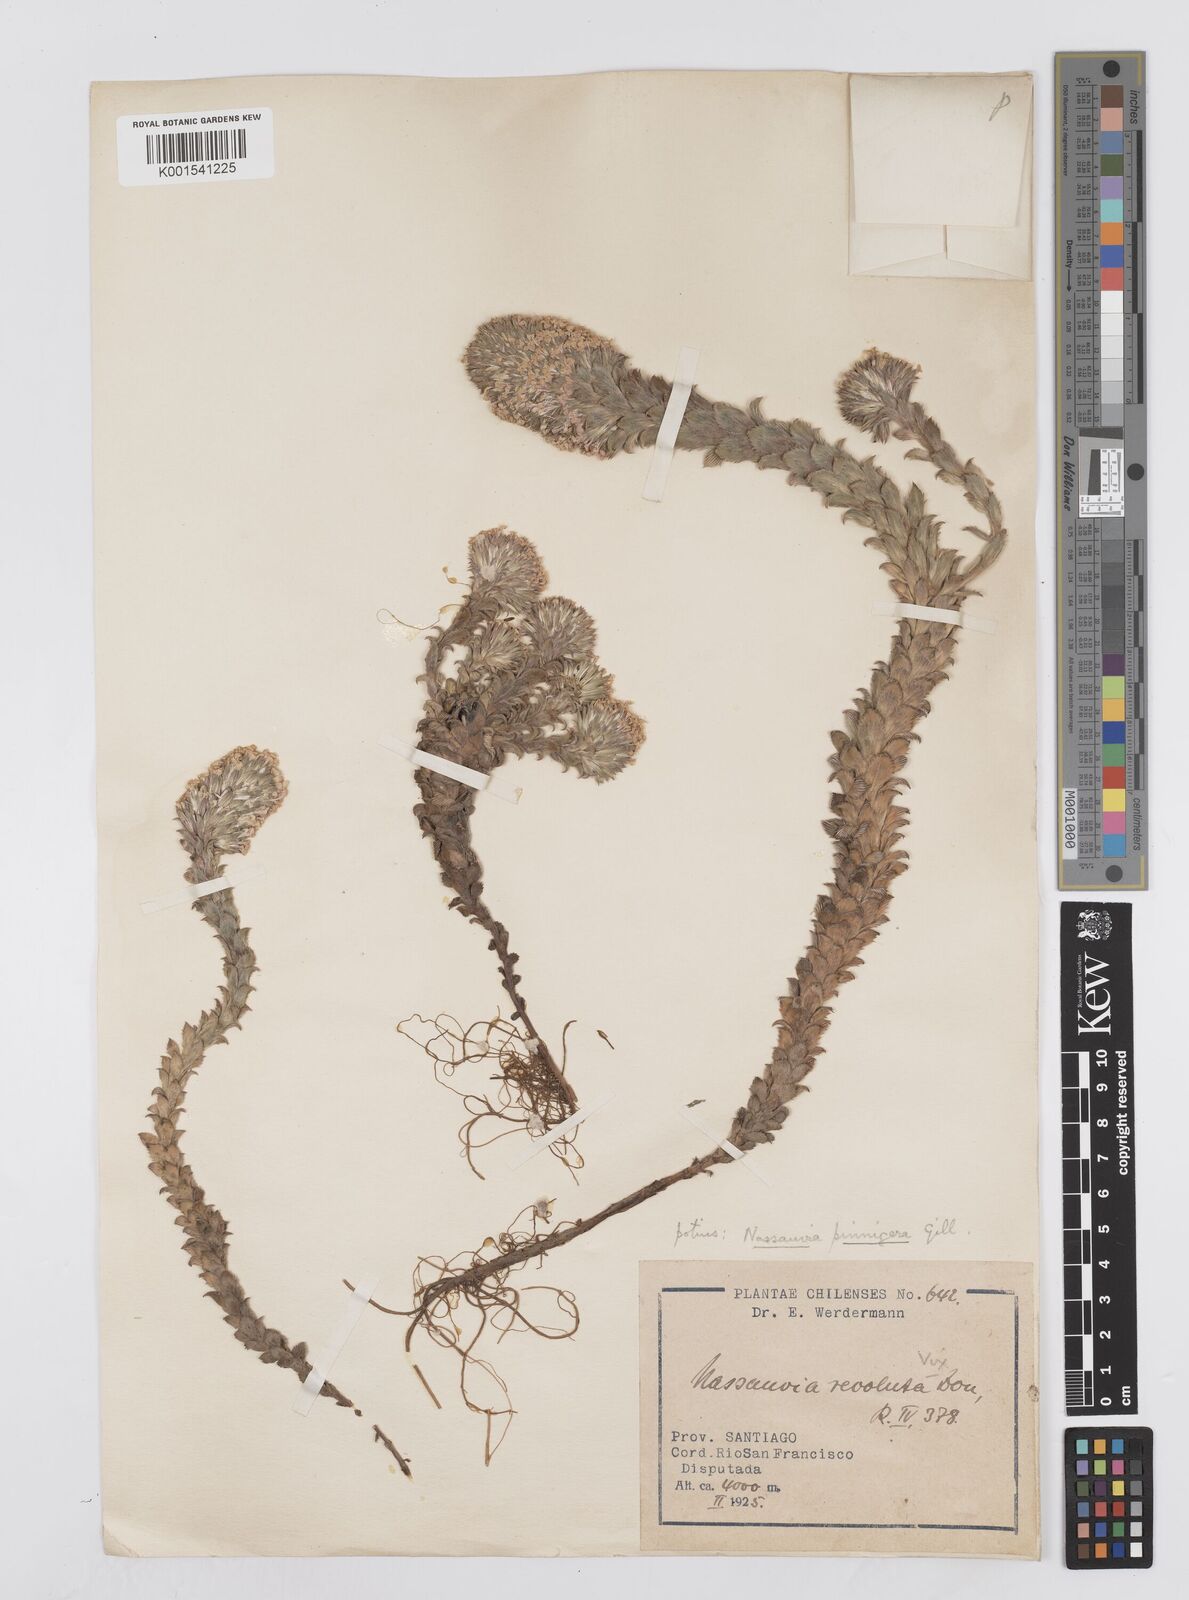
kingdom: Plantae
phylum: Tracheophyta
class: Magnoliopsida
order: Asterales
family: Asteraceae
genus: Nassauvia
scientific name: Nassauvia pinnigera
